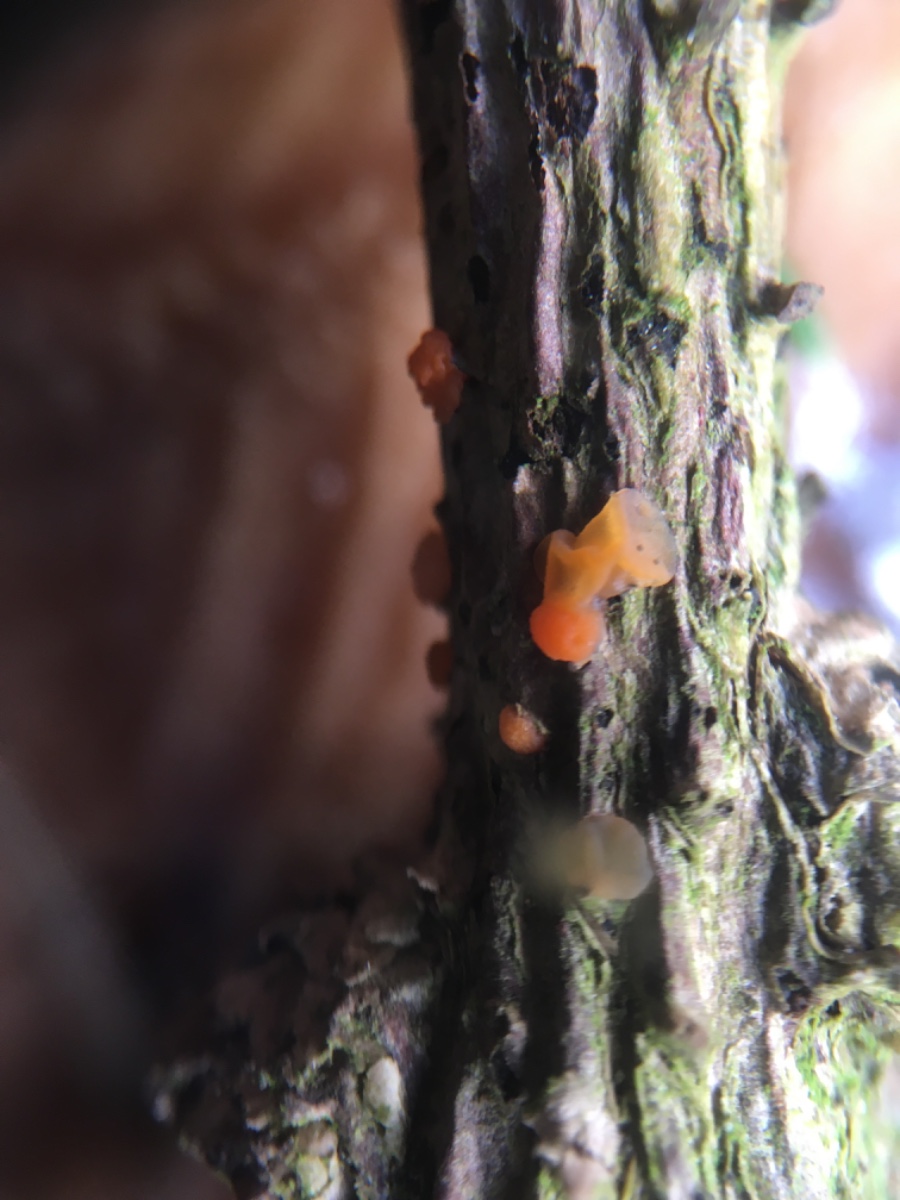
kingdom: Fungi
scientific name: Fungi
